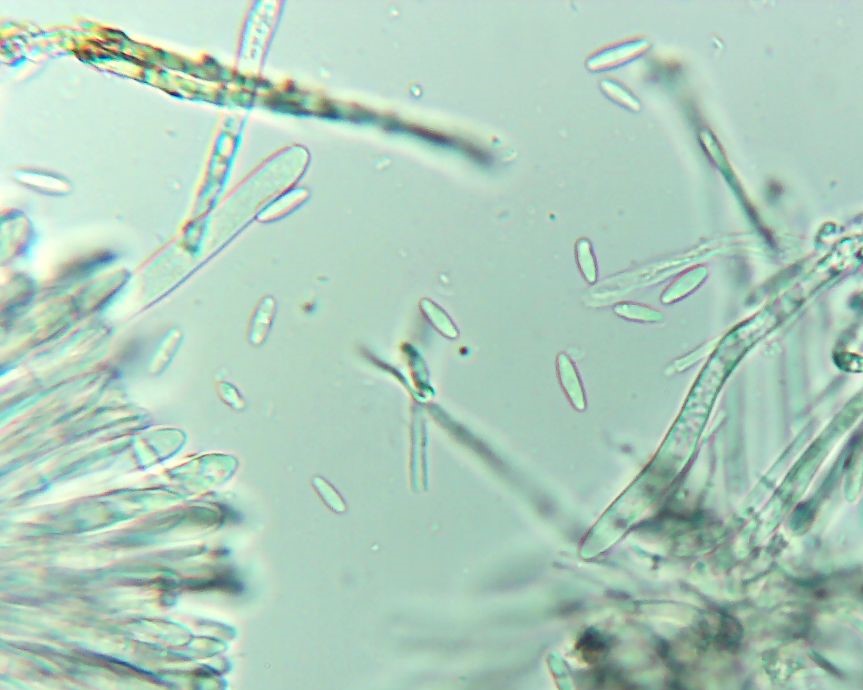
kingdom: Fungi
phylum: Ascomycota
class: Leotiomycetes
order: Helotiales
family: Hyaloscyphaceae
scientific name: Hyaloscyphaceae
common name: frynseskivefamilien
